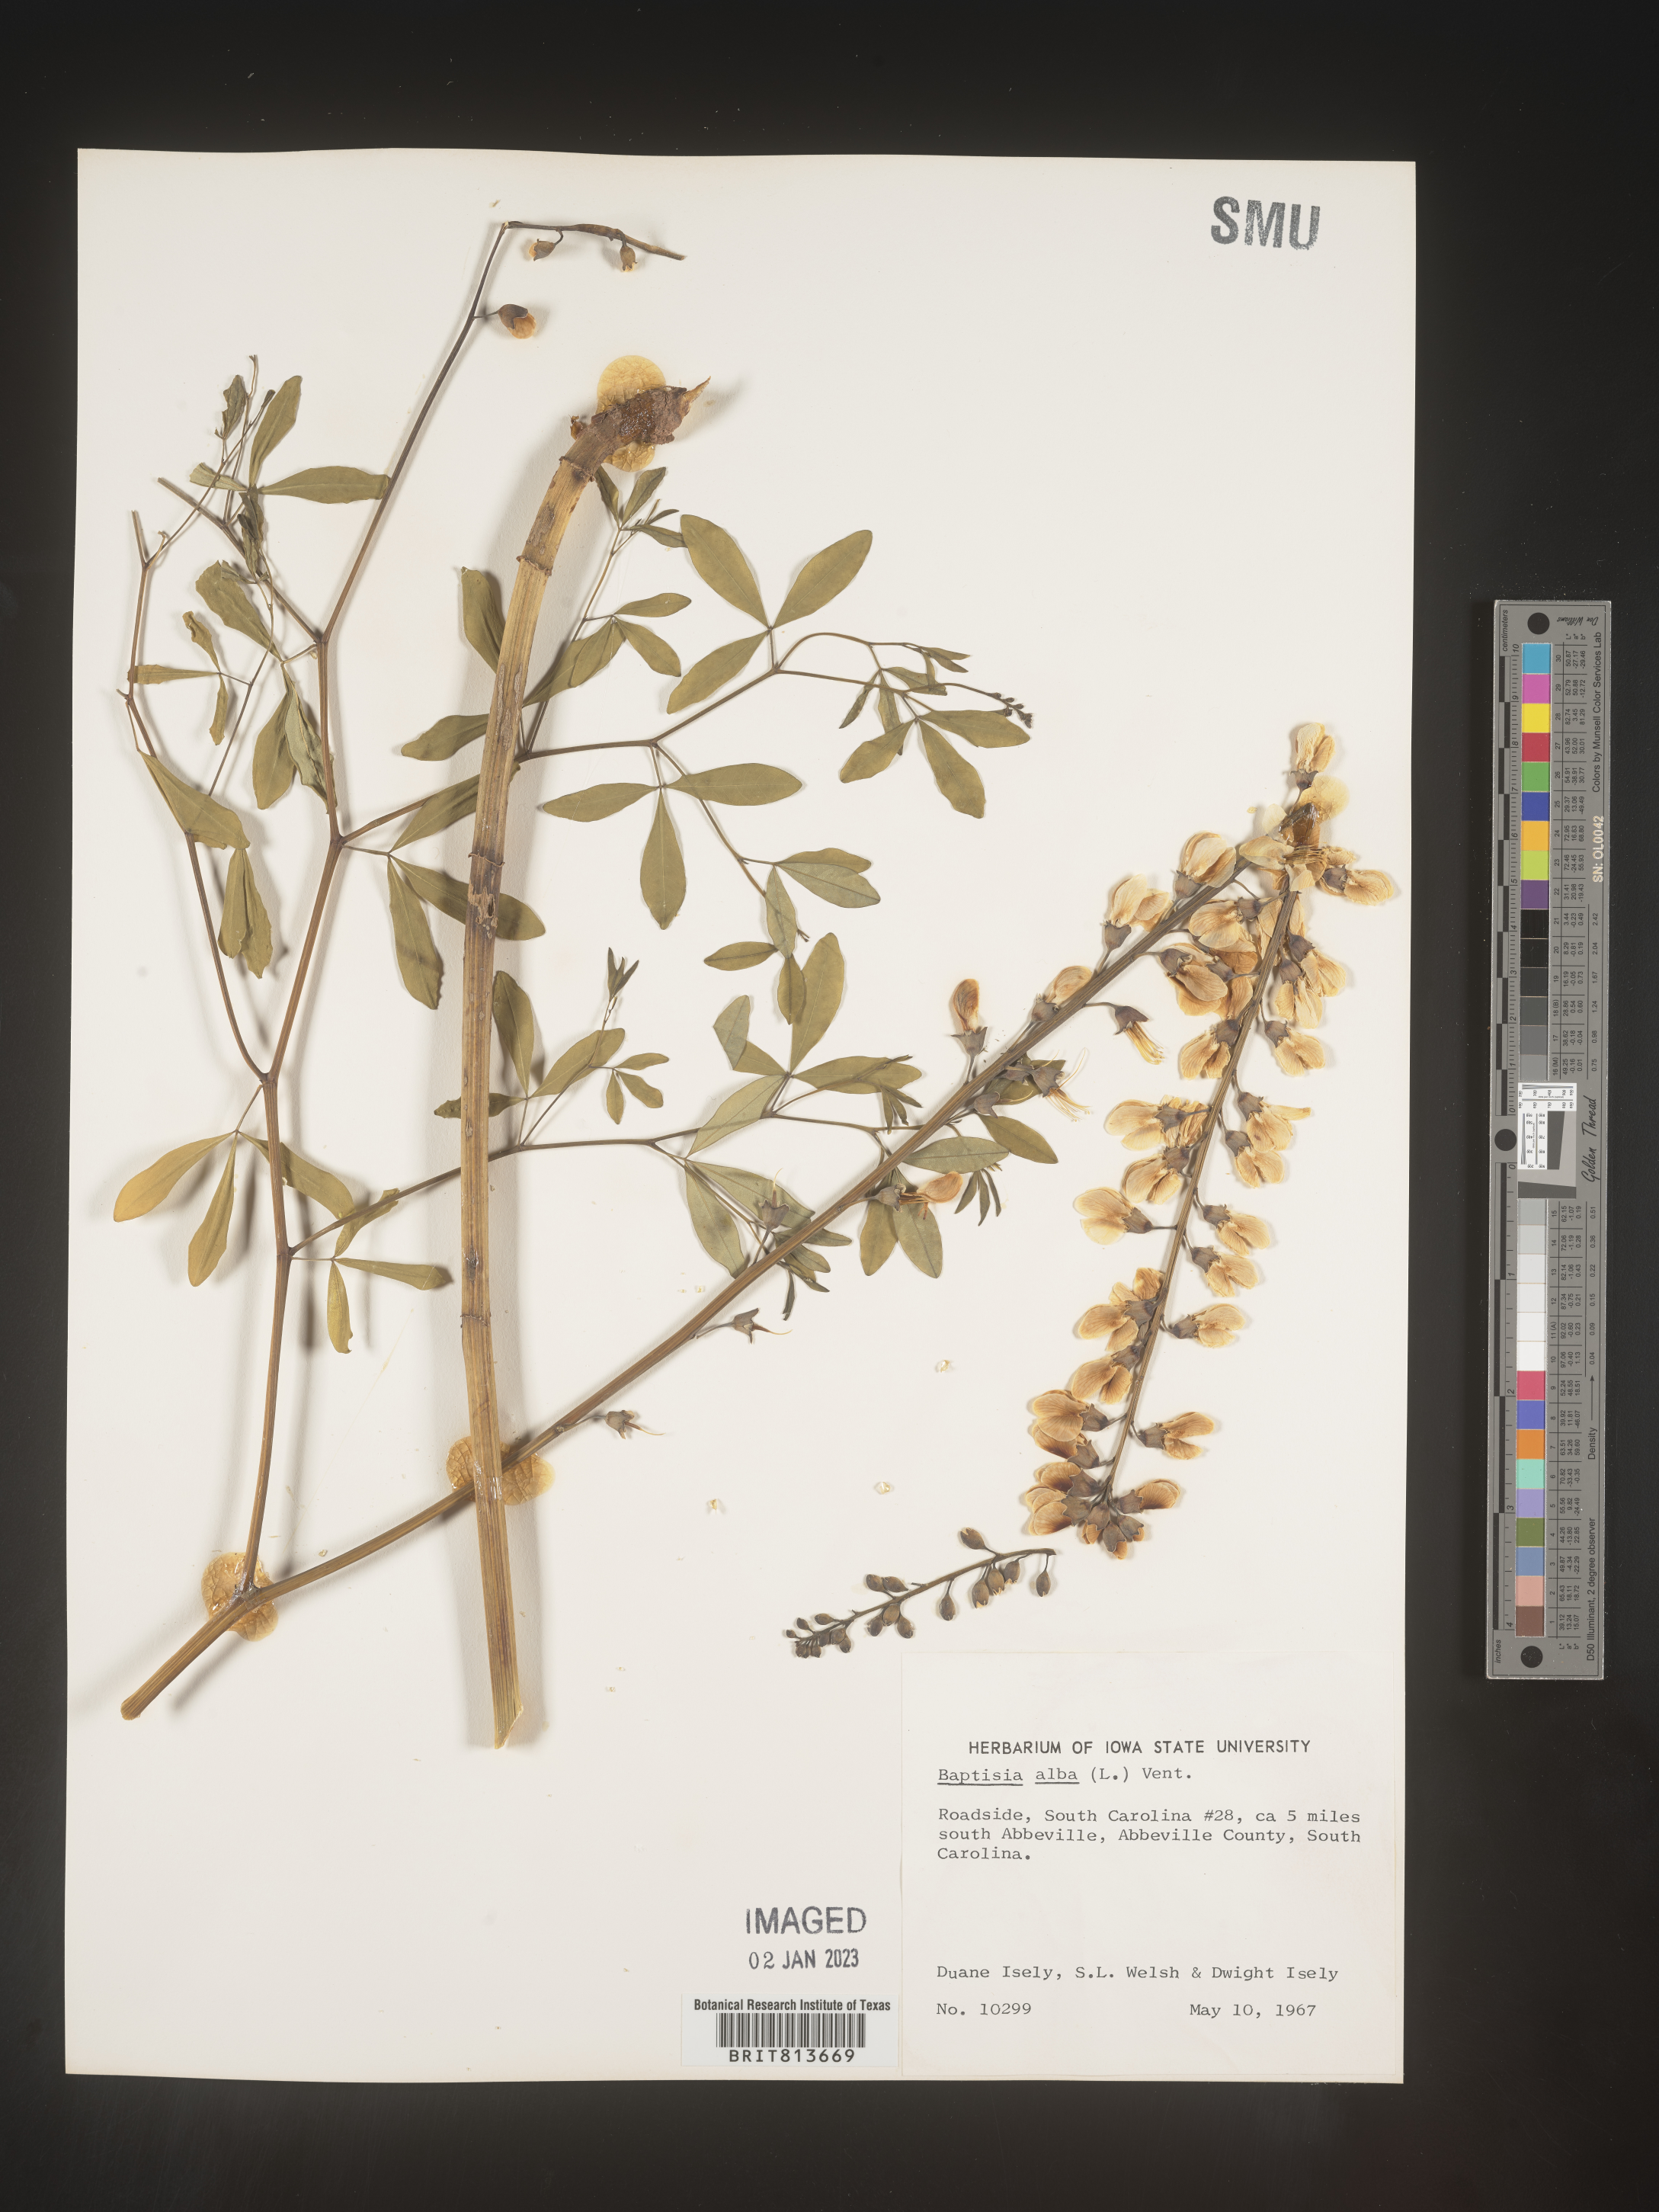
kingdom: Plantae
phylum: Tracheophyta
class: Magnoliopsida
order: Fabales
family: Fabaceae
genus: Baptisia
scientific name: Baptisia alba
